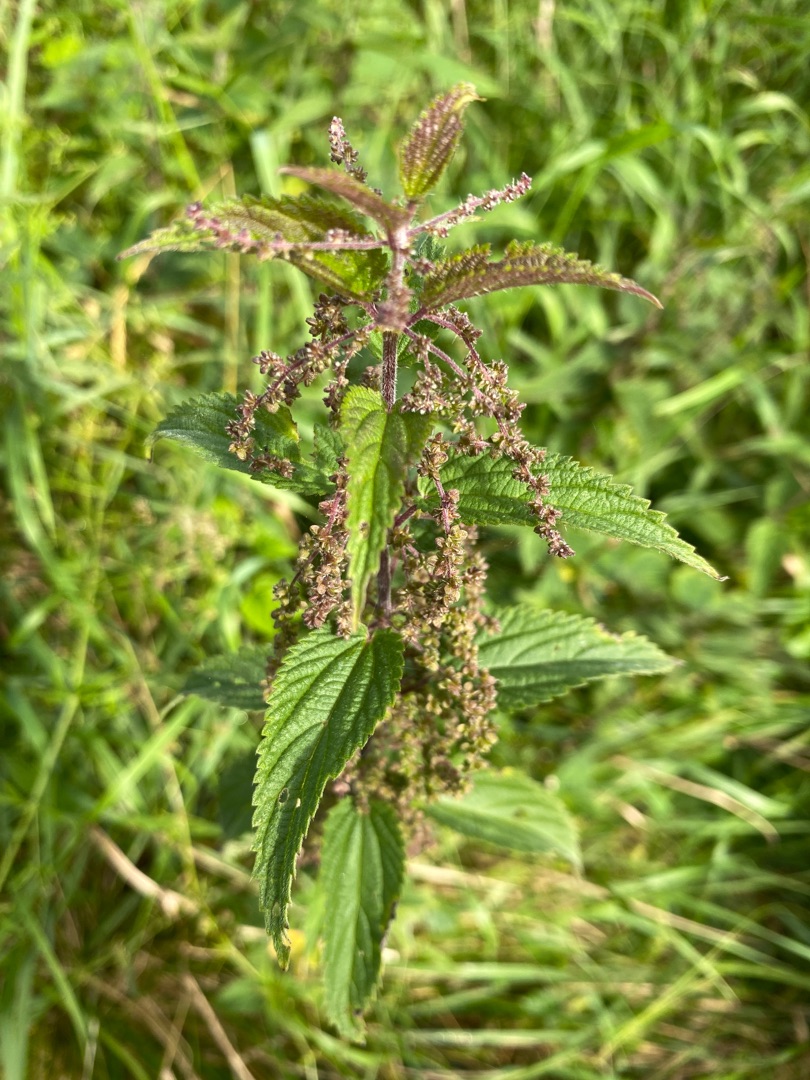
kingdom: Plantae
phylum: Tracheophyta
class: Magnoliopsida
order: Rosales
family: Urticaceae
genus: Urtica
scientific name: Urtica dioica
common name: Stor nælde
